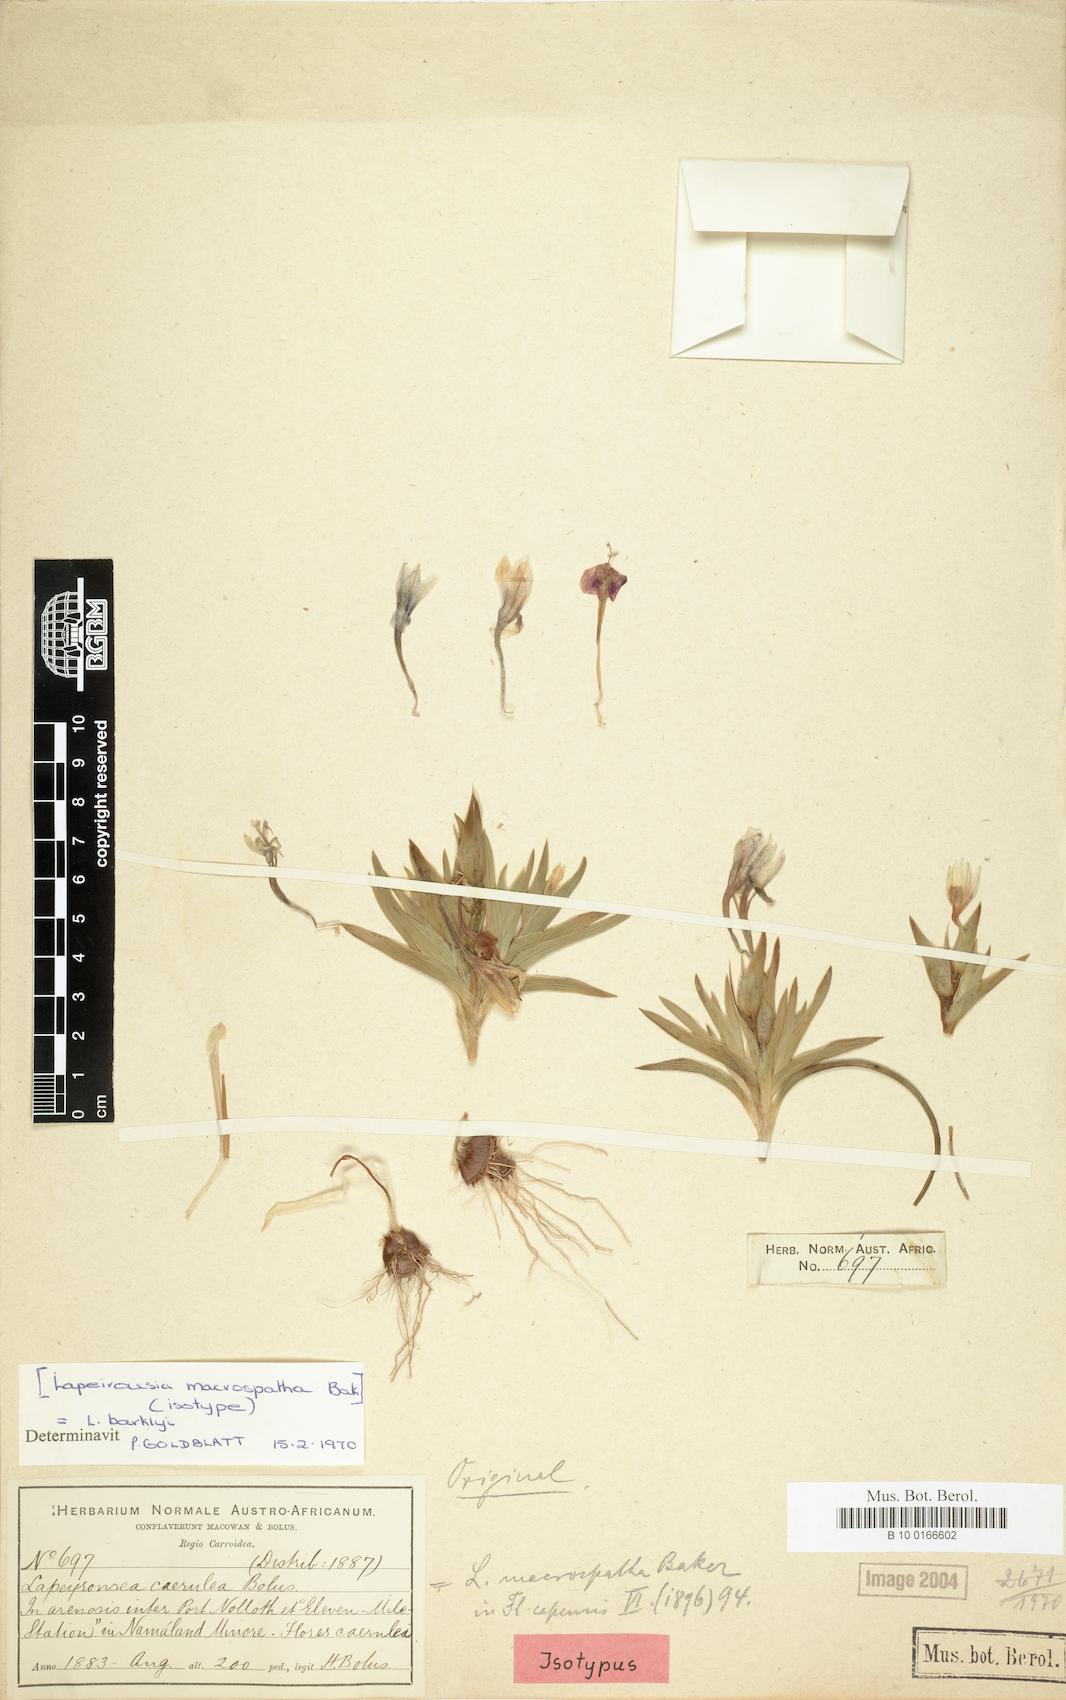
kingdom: Plantae
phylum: Tracheophyta
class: Liliopsida
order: Asparagales
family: Iridaceae
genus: Lapeirousia
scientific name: Lapeirousia barklyi
